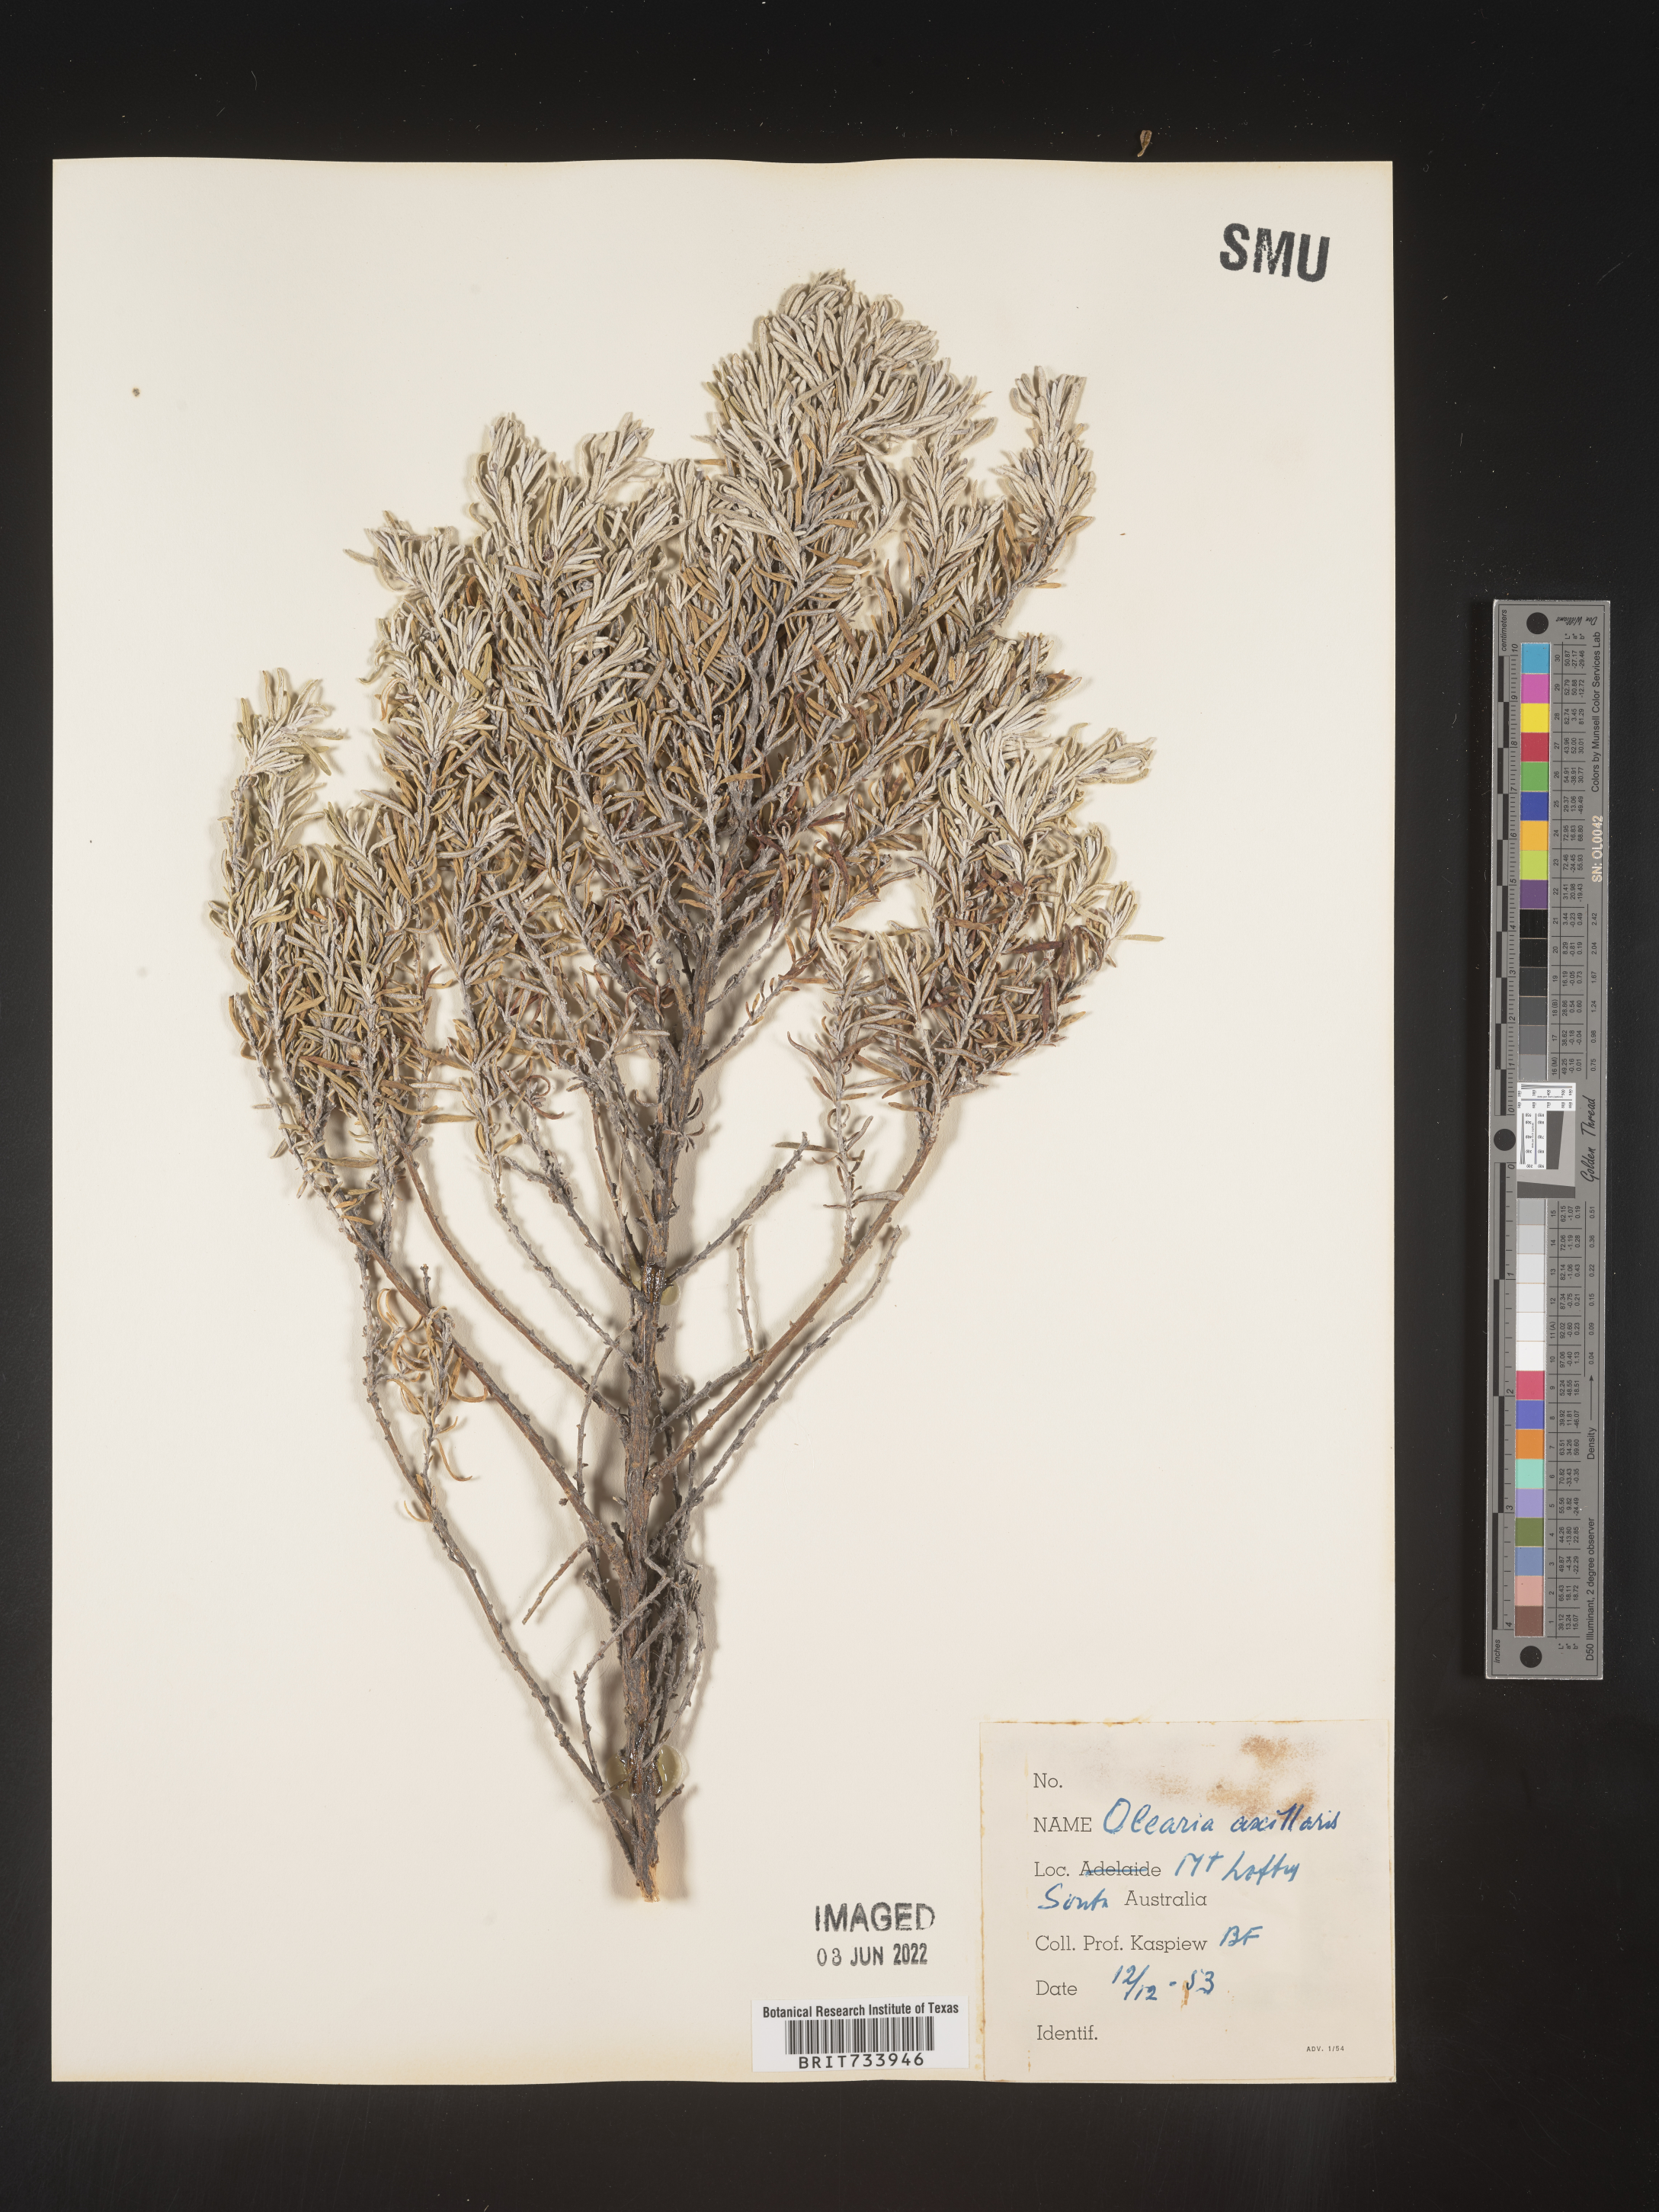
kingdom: Plantae
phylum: Tracheophyta
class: Magnoliopsida
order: Asterales
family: Asteraceae
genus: Olearia
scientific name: Olearia
